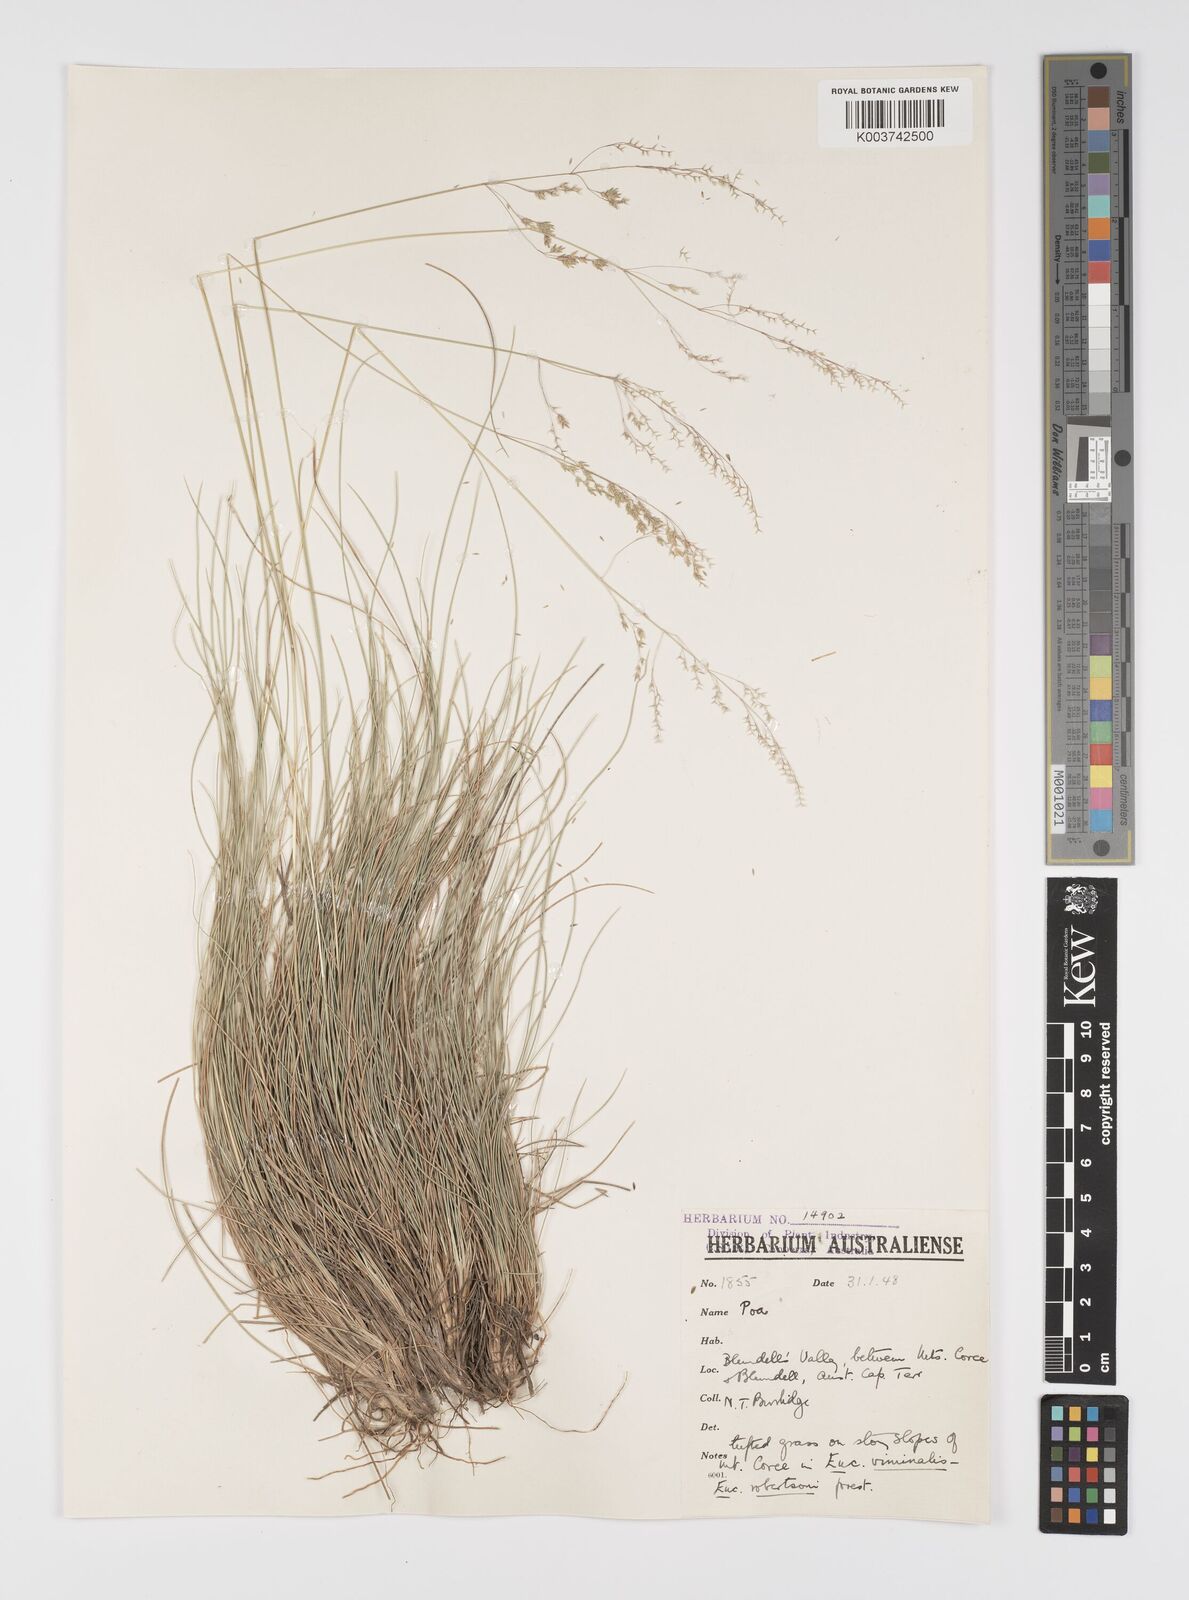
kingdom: Plantae
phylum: Tracheophyta
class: Liliopsida
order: Poales
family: Poaceae
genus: Poa
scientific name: Poa
